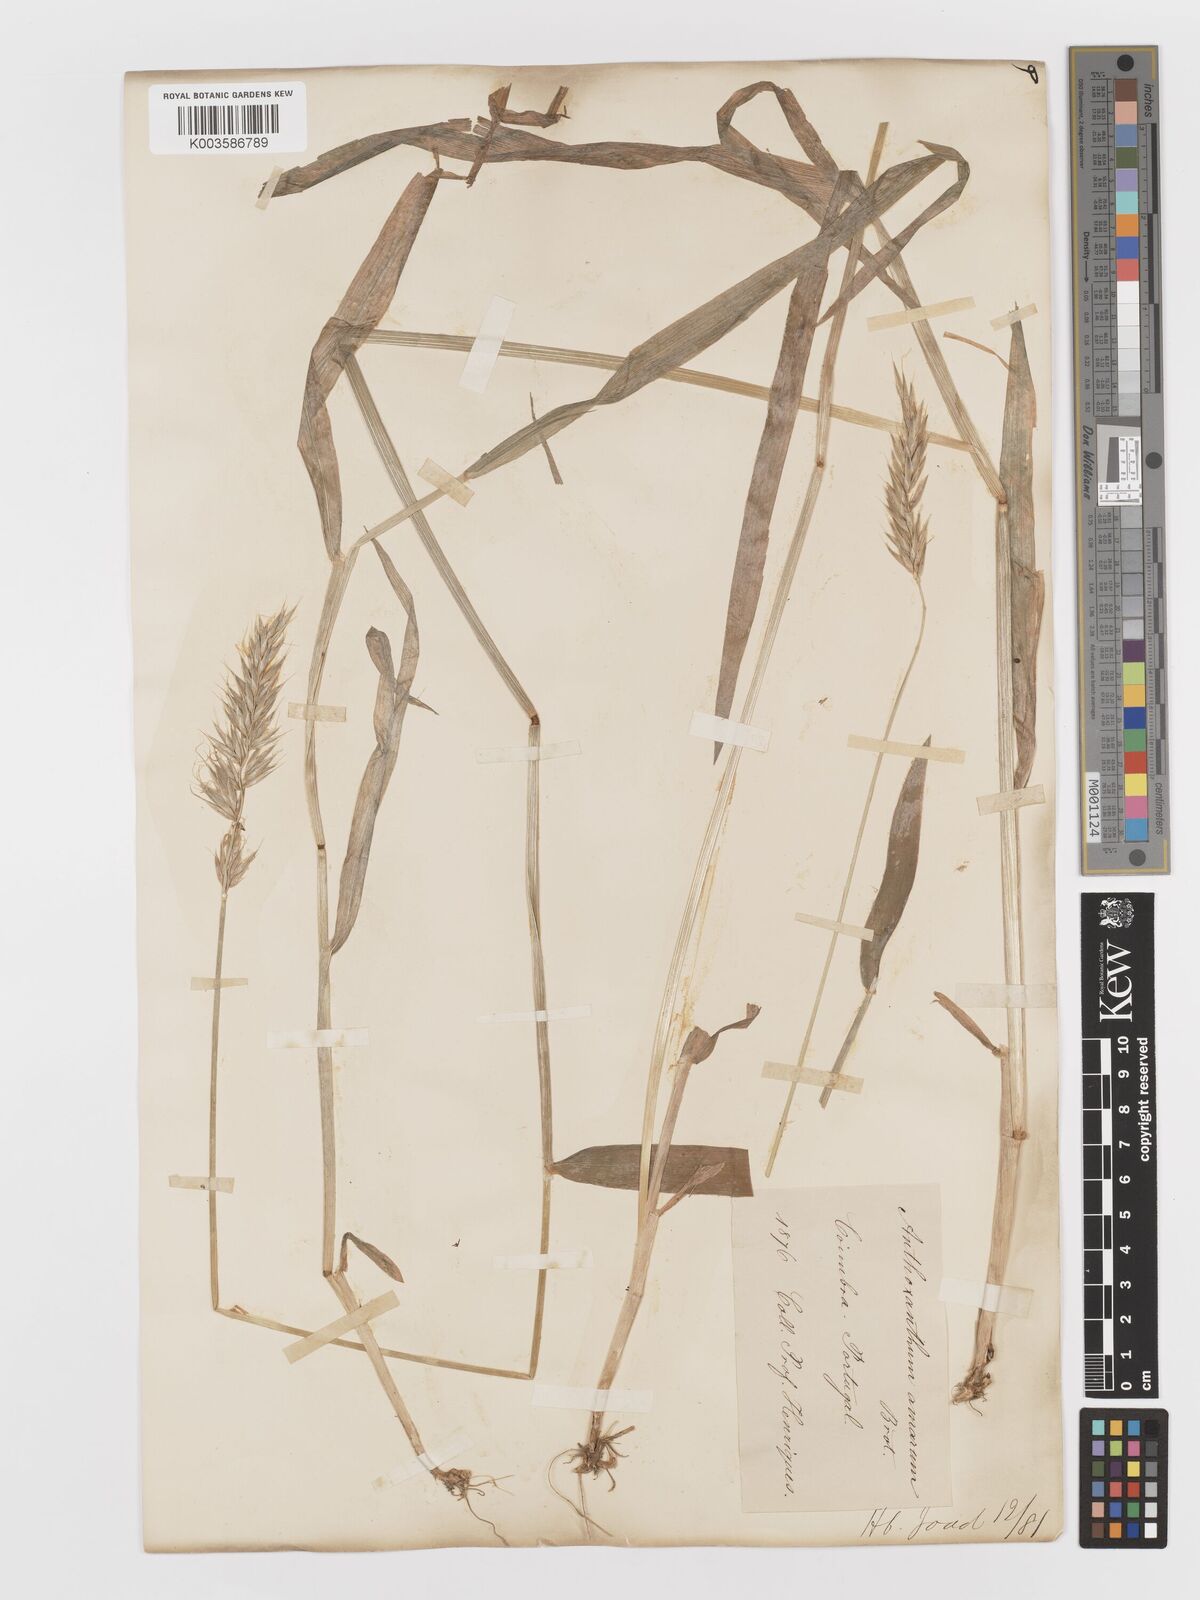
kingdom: Plantae
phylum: Tracheophyta
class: Liliopsida
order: Poales
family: Poaceae
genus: Anthoxanthum
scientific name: Anthoxanthum amarum
